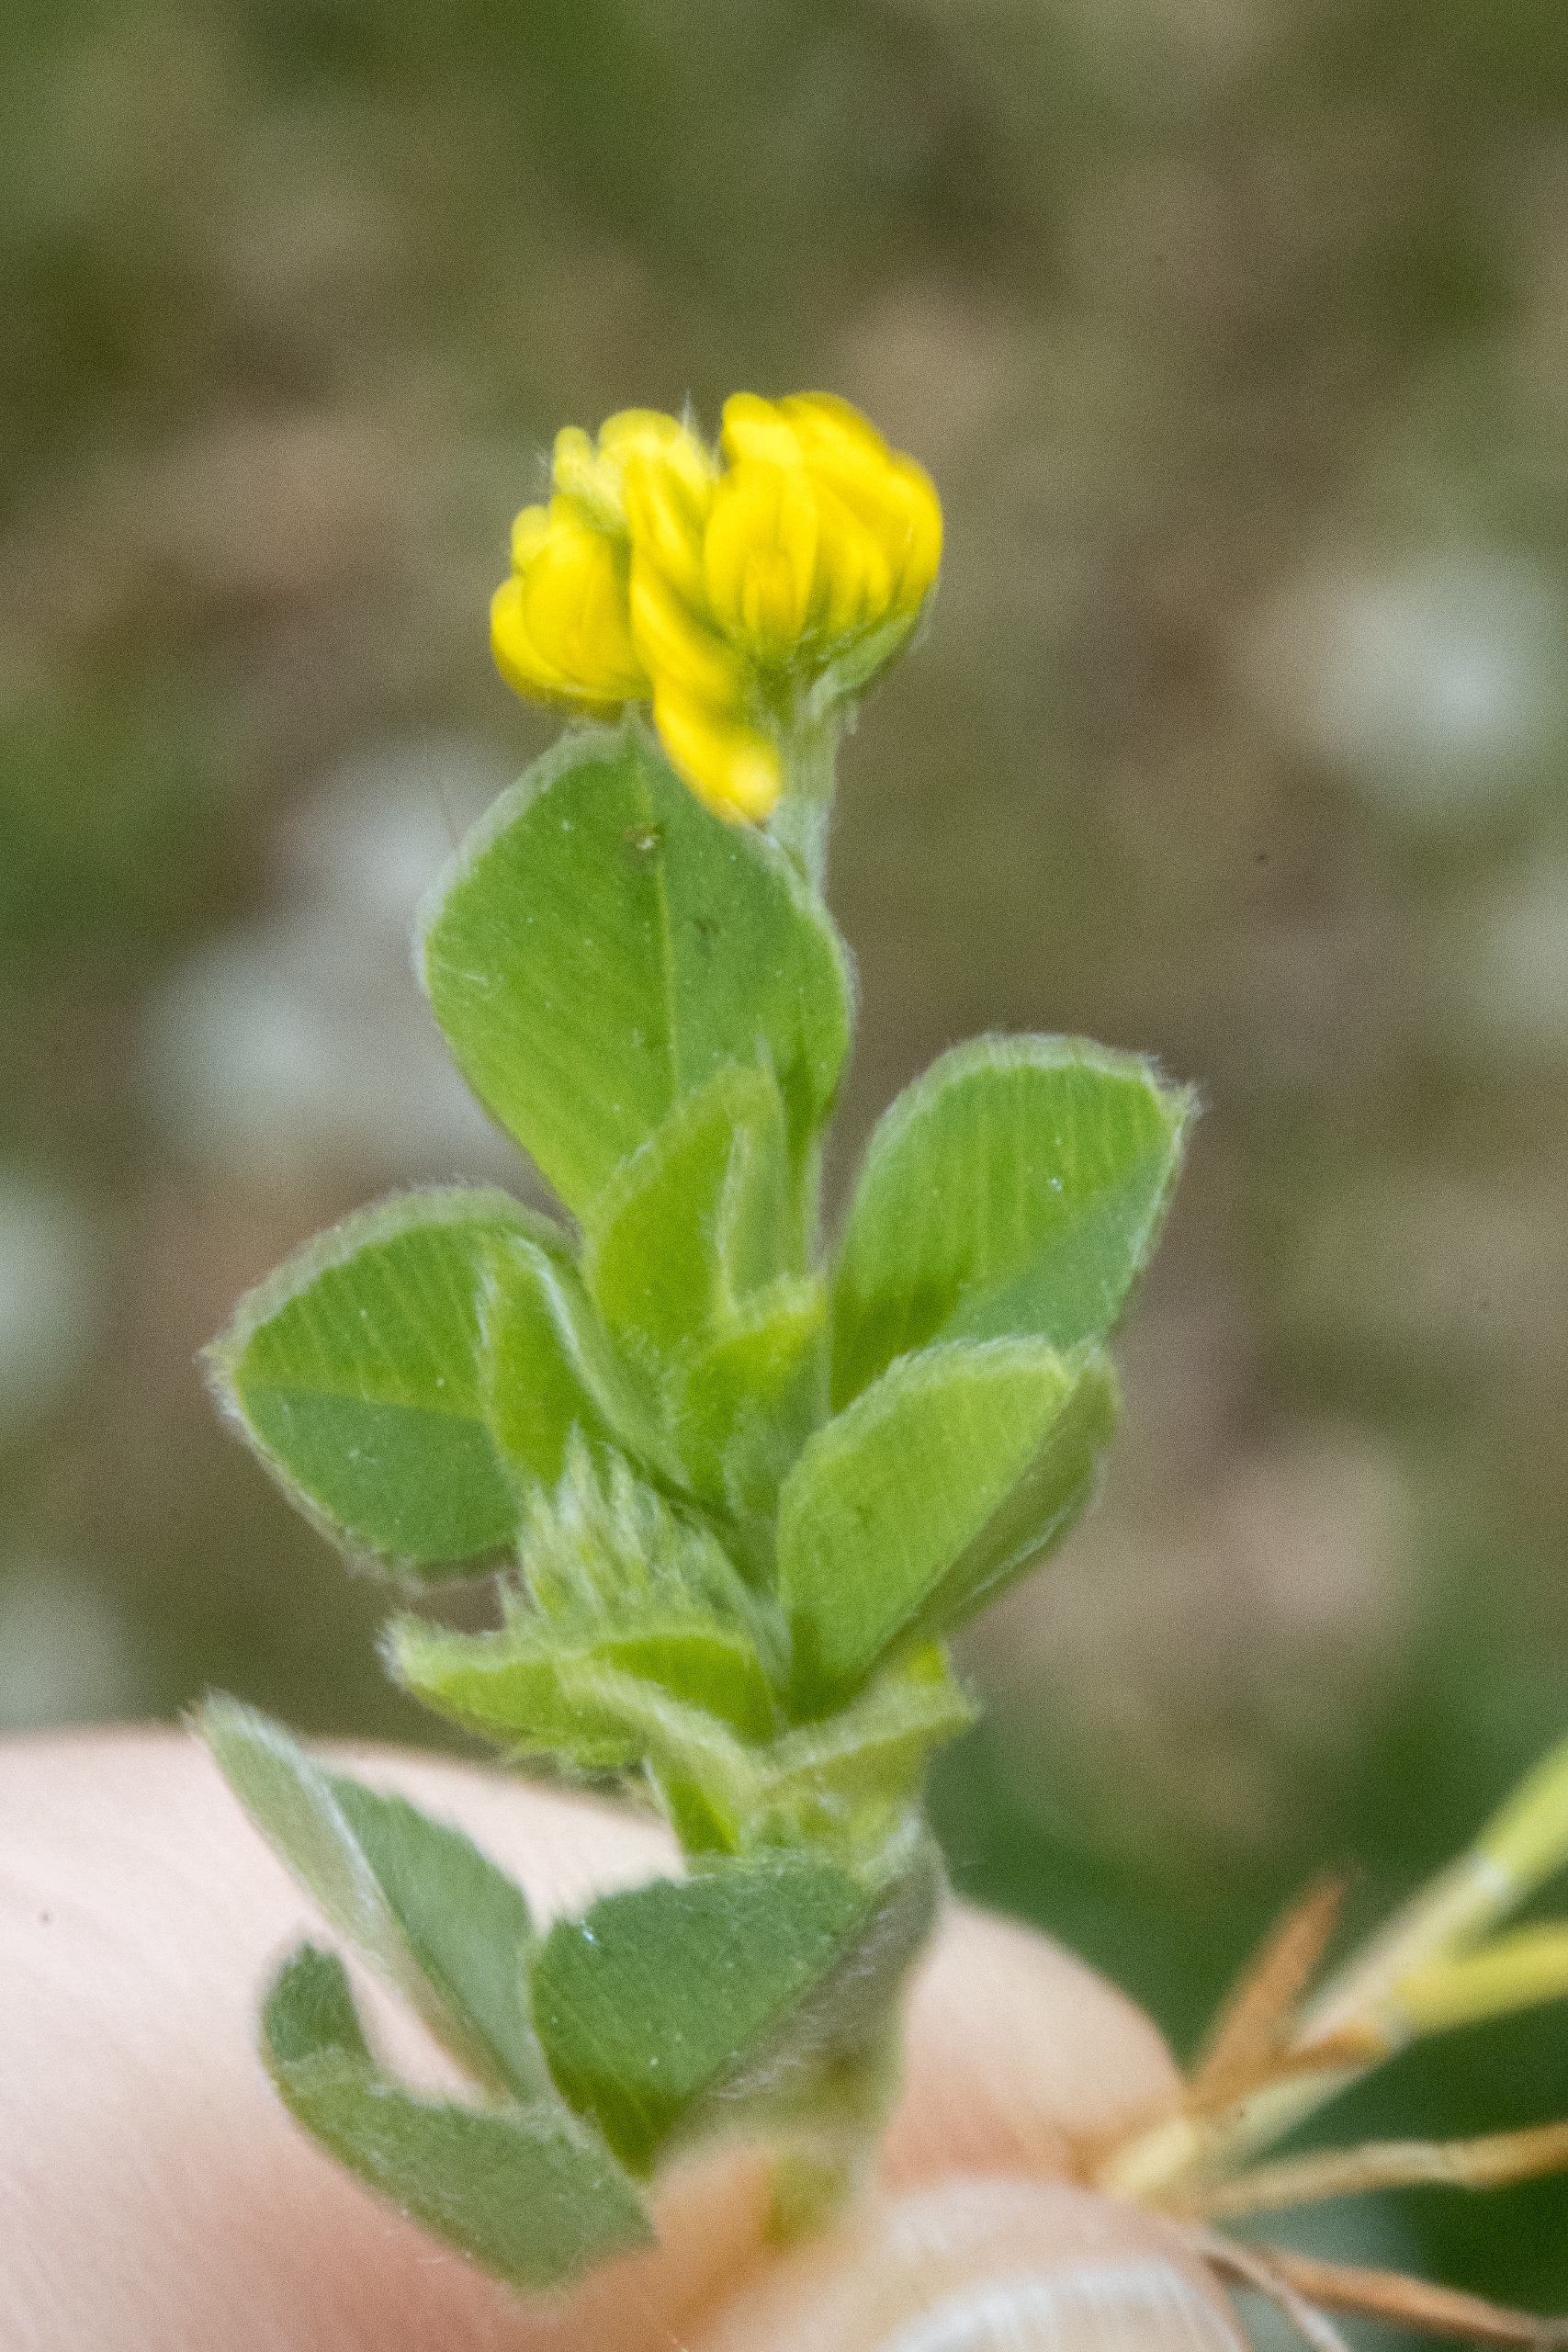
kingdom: Plantae
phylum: Tracheophyta
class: Magnoliopsida
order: Fabales
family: Fabaceae
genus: Medicago
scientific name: Medicago lupulina
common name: Humle-sneglebælg
